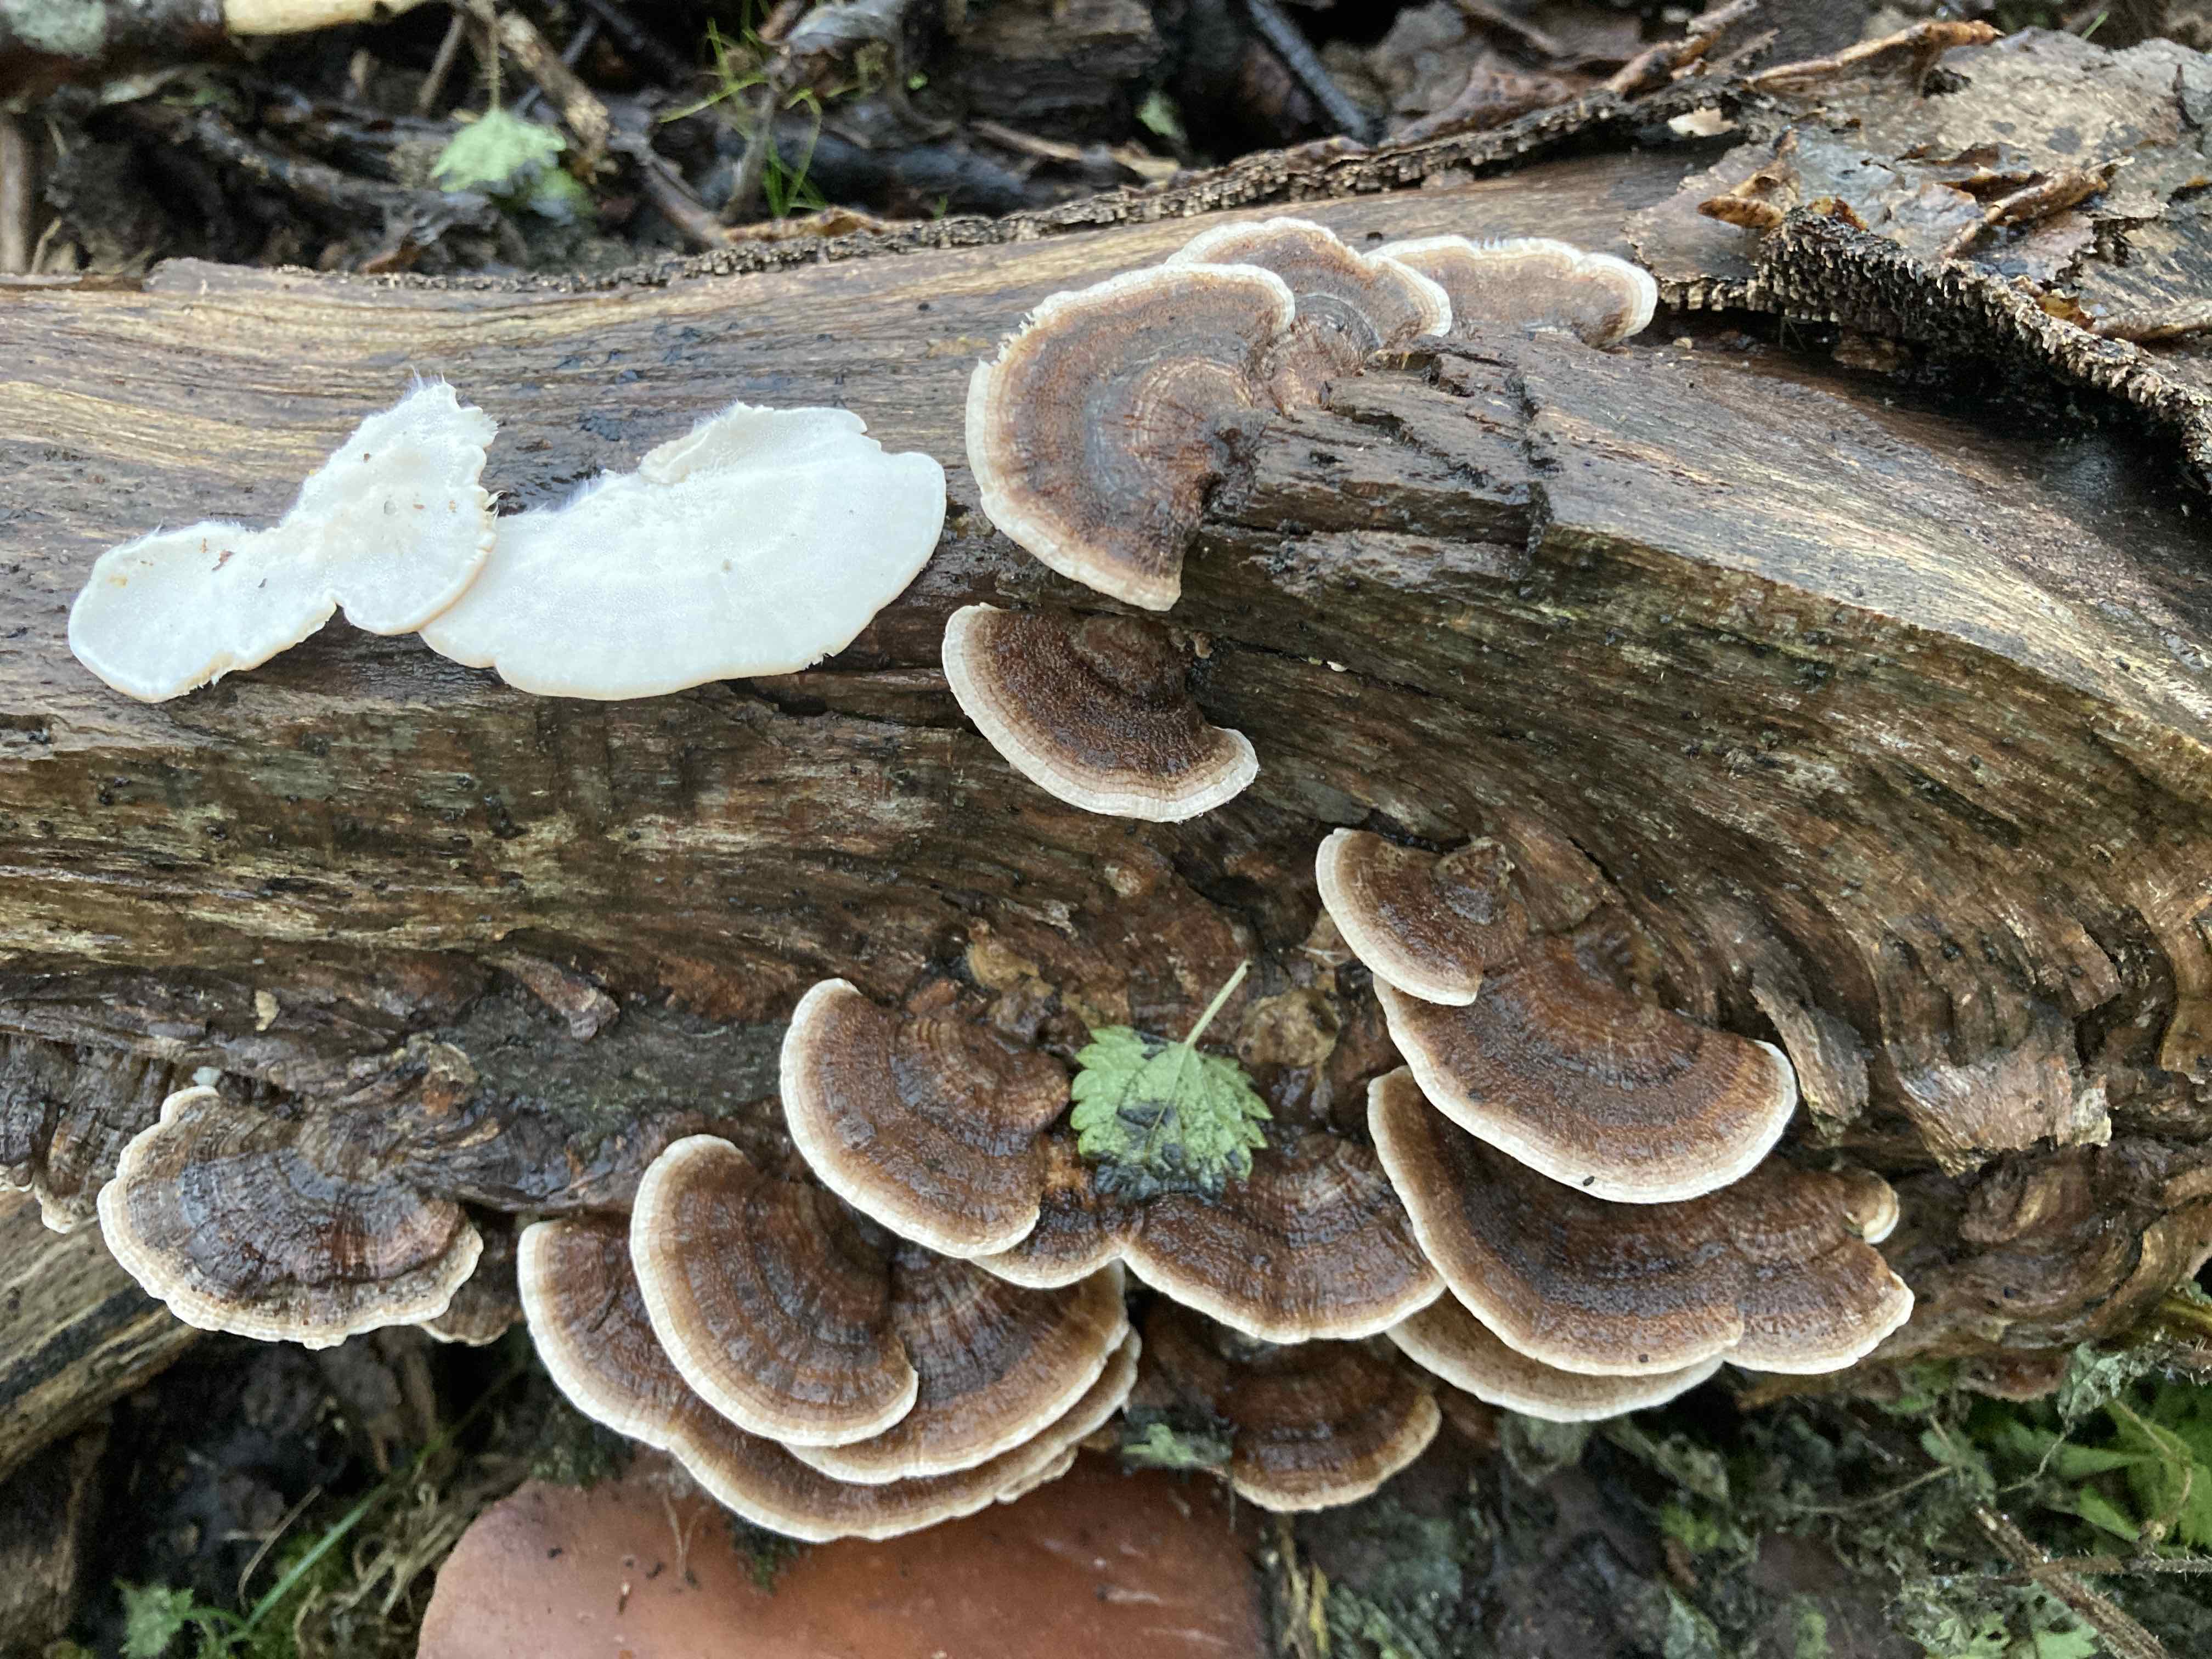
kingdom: Fungi
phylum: Basidiomycota
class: Agaricomycetes
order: Polyporales
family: Polyporaceae
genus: Trametes
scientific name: Trametes versicolor
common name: broget læderporesvamp
